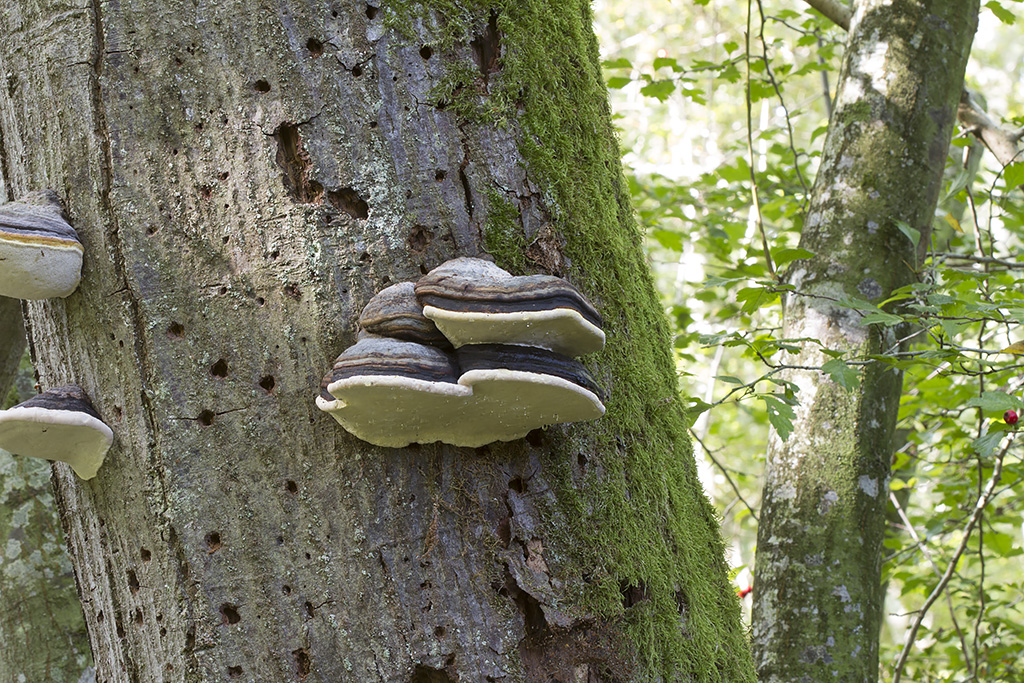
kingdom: Fungi
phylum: Basidiomycota
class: Agaricomycetes
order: Polyporales
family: Fomitopsidaceae
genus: Fomitopsis
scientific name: Fomitopsis pinicola
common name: randbæltet hovporesvamp
